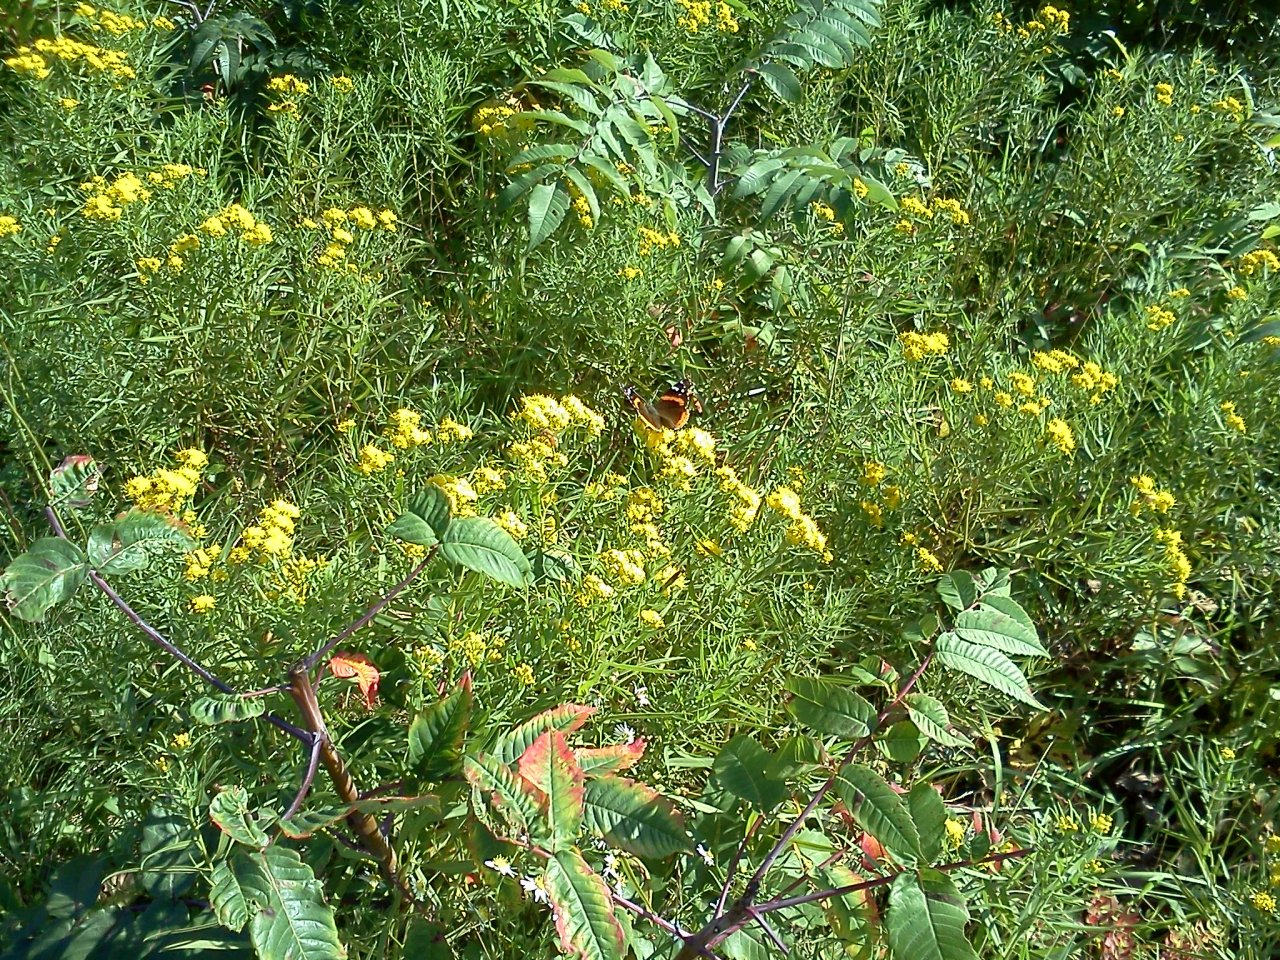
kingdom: Animalia
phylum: Arthropoda
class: Insecta
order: Lepidoptera
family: Nymphalidae
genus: Vanessa
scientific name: Vanessa atalanta
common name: Red Admiral
